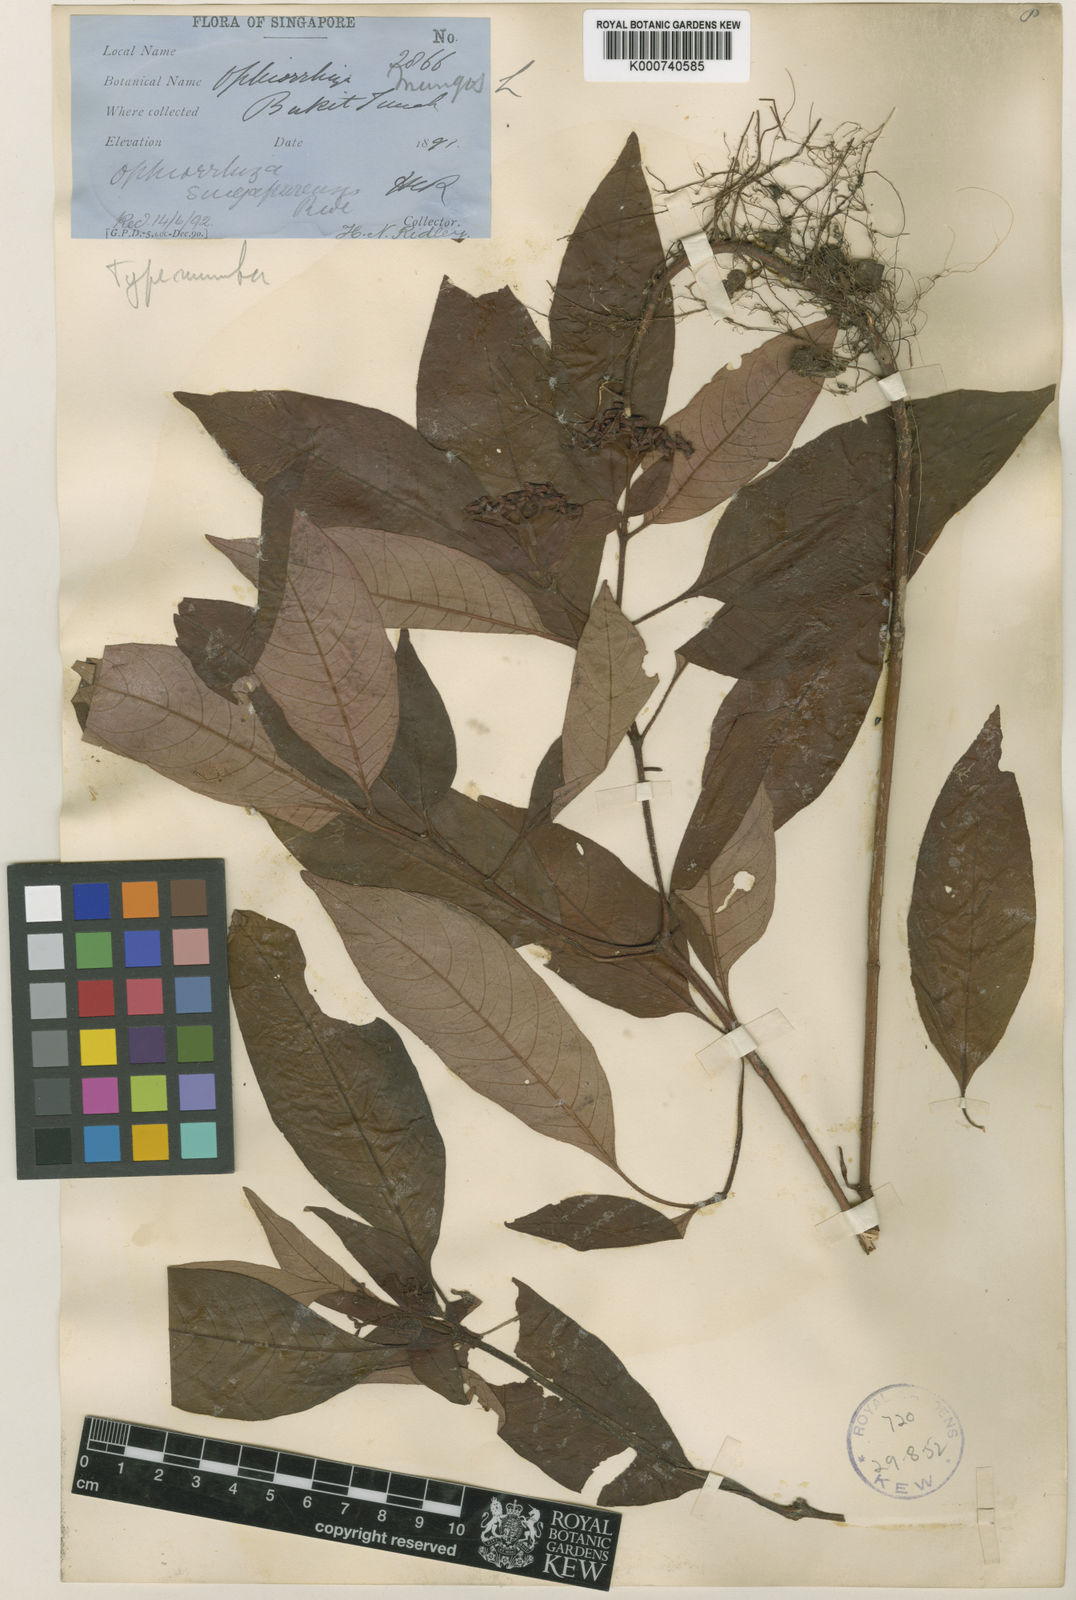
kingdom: Plantae
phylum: Tracheophyta
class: Magnoliopsida
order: Gentianales
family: Rubiaceae
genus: Ophiorrhiza
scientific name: Ophiorrhiza singaporensis
